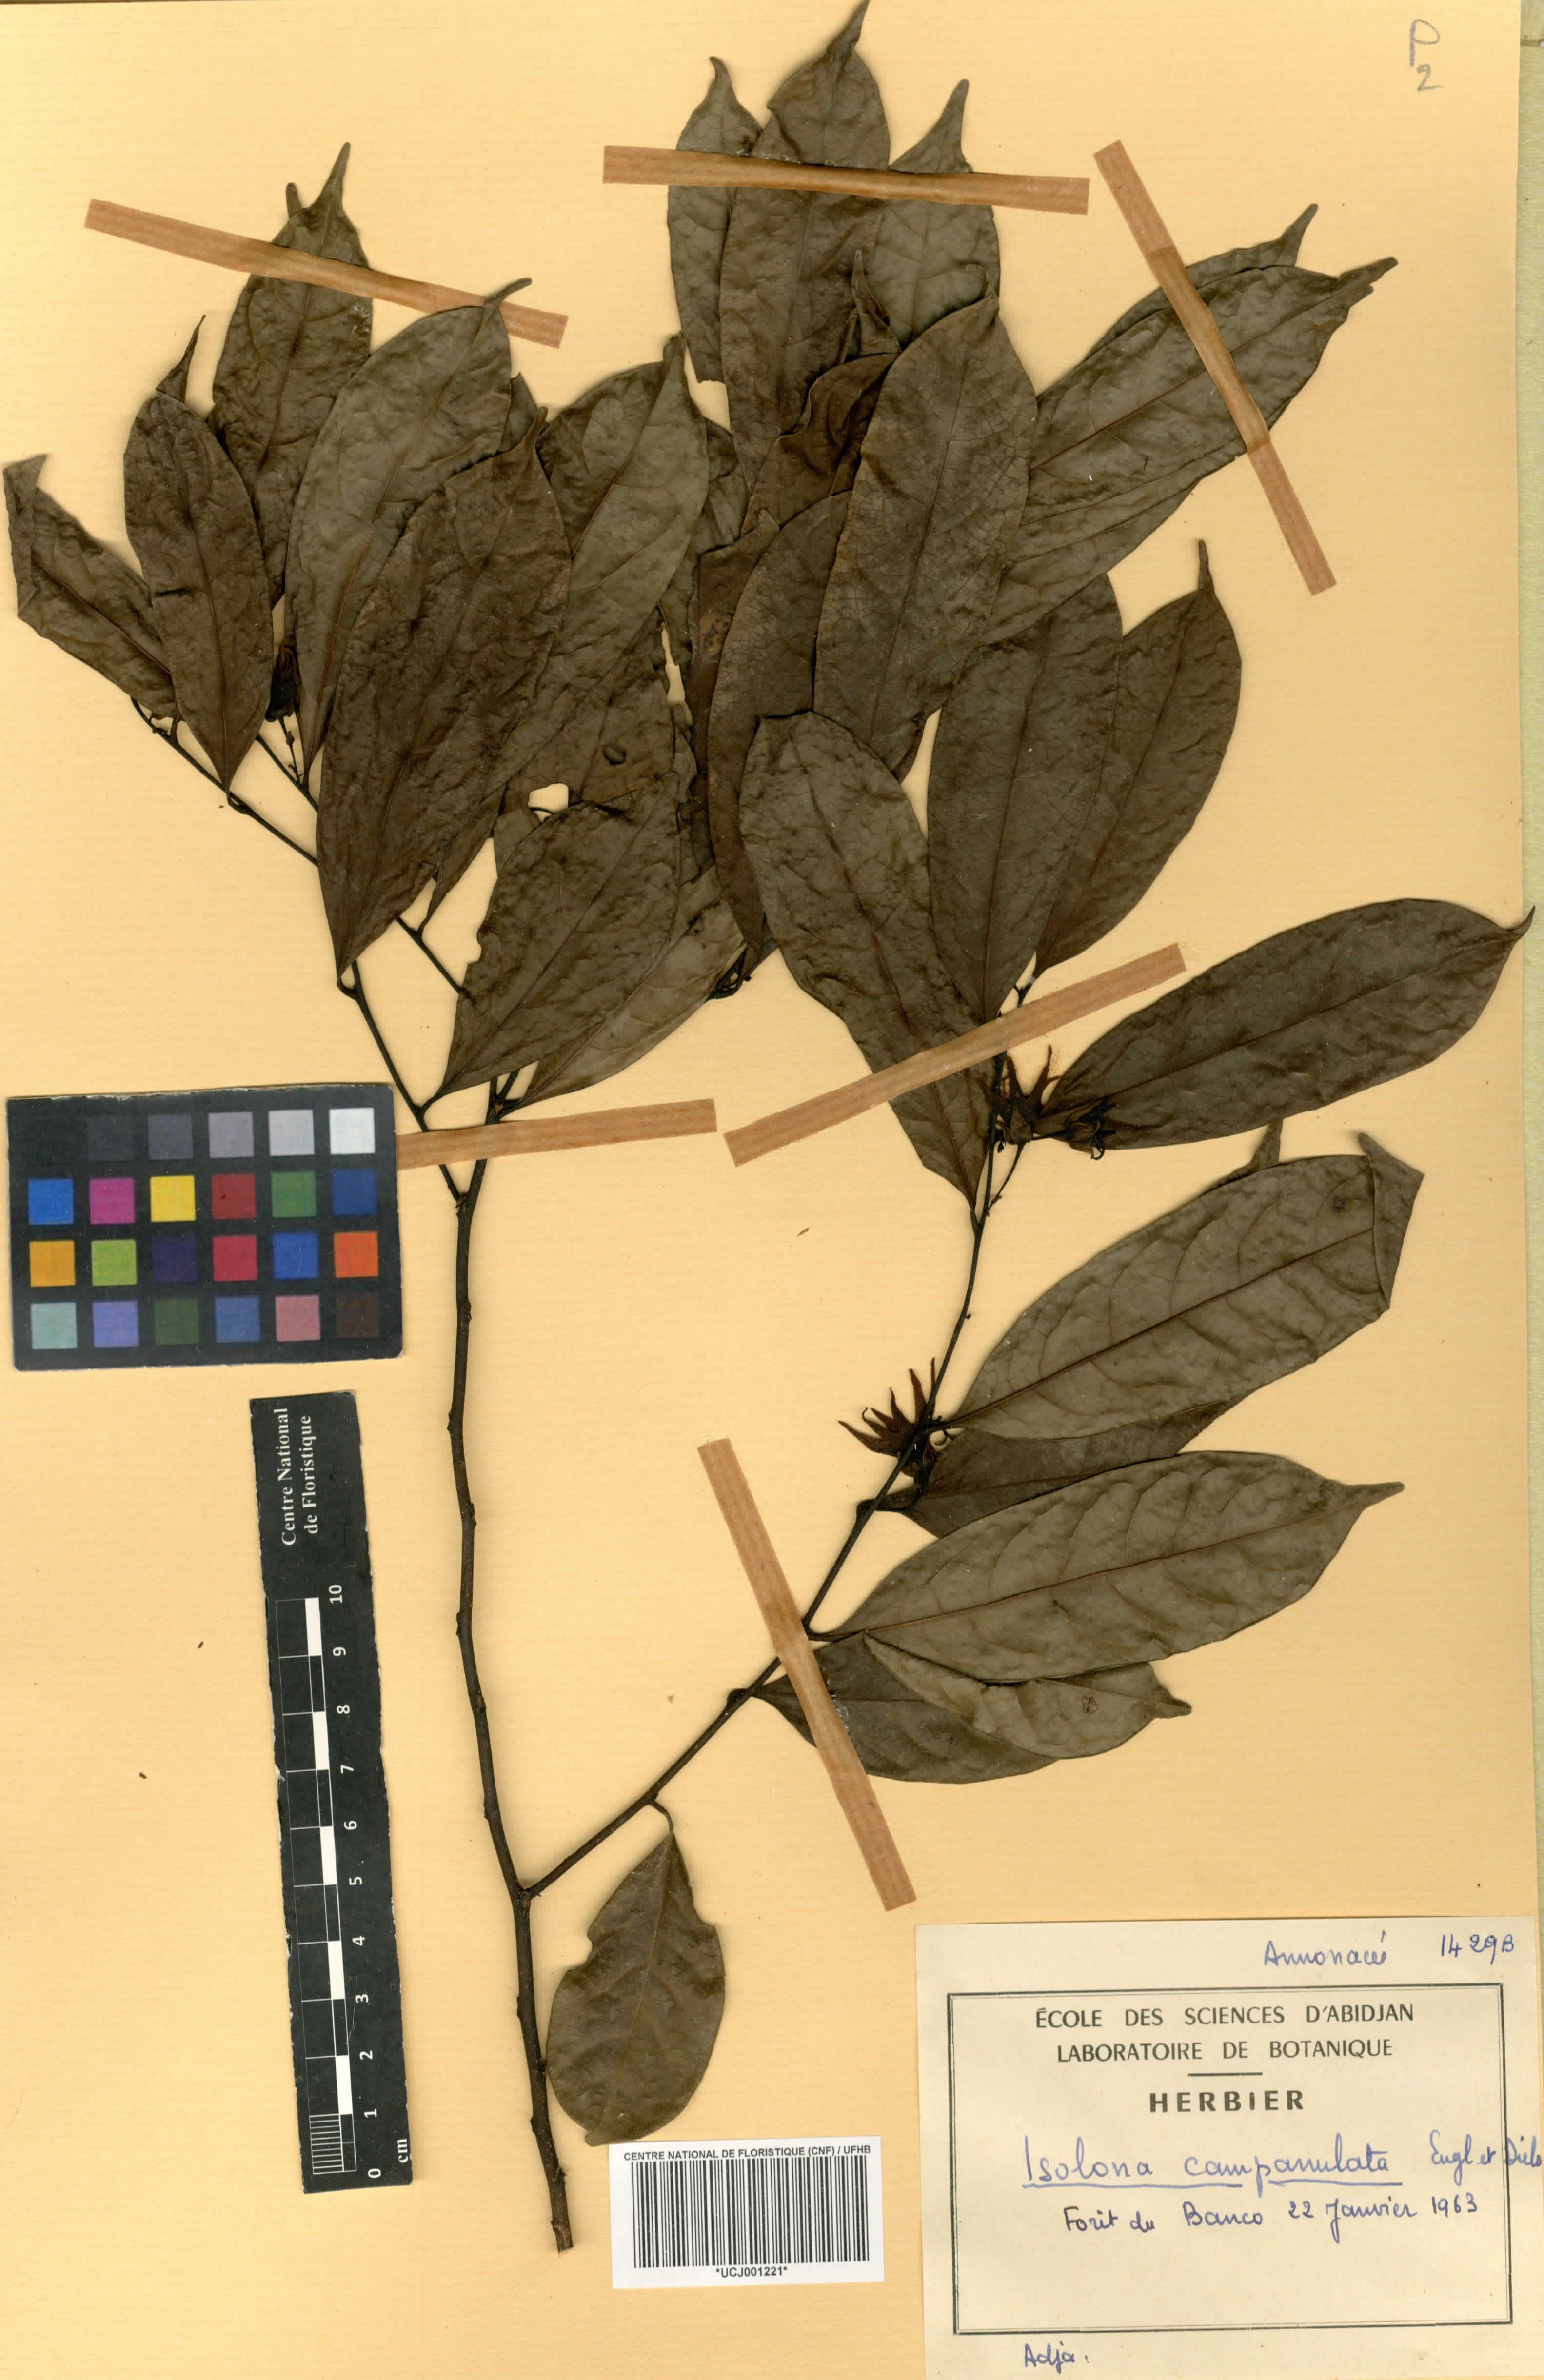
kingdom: Plantae
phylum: Tracheophyta
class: Magnoliopsida
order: Magnoliales
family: Annonaceae
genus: Isolona
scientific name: Isolona campanulata
